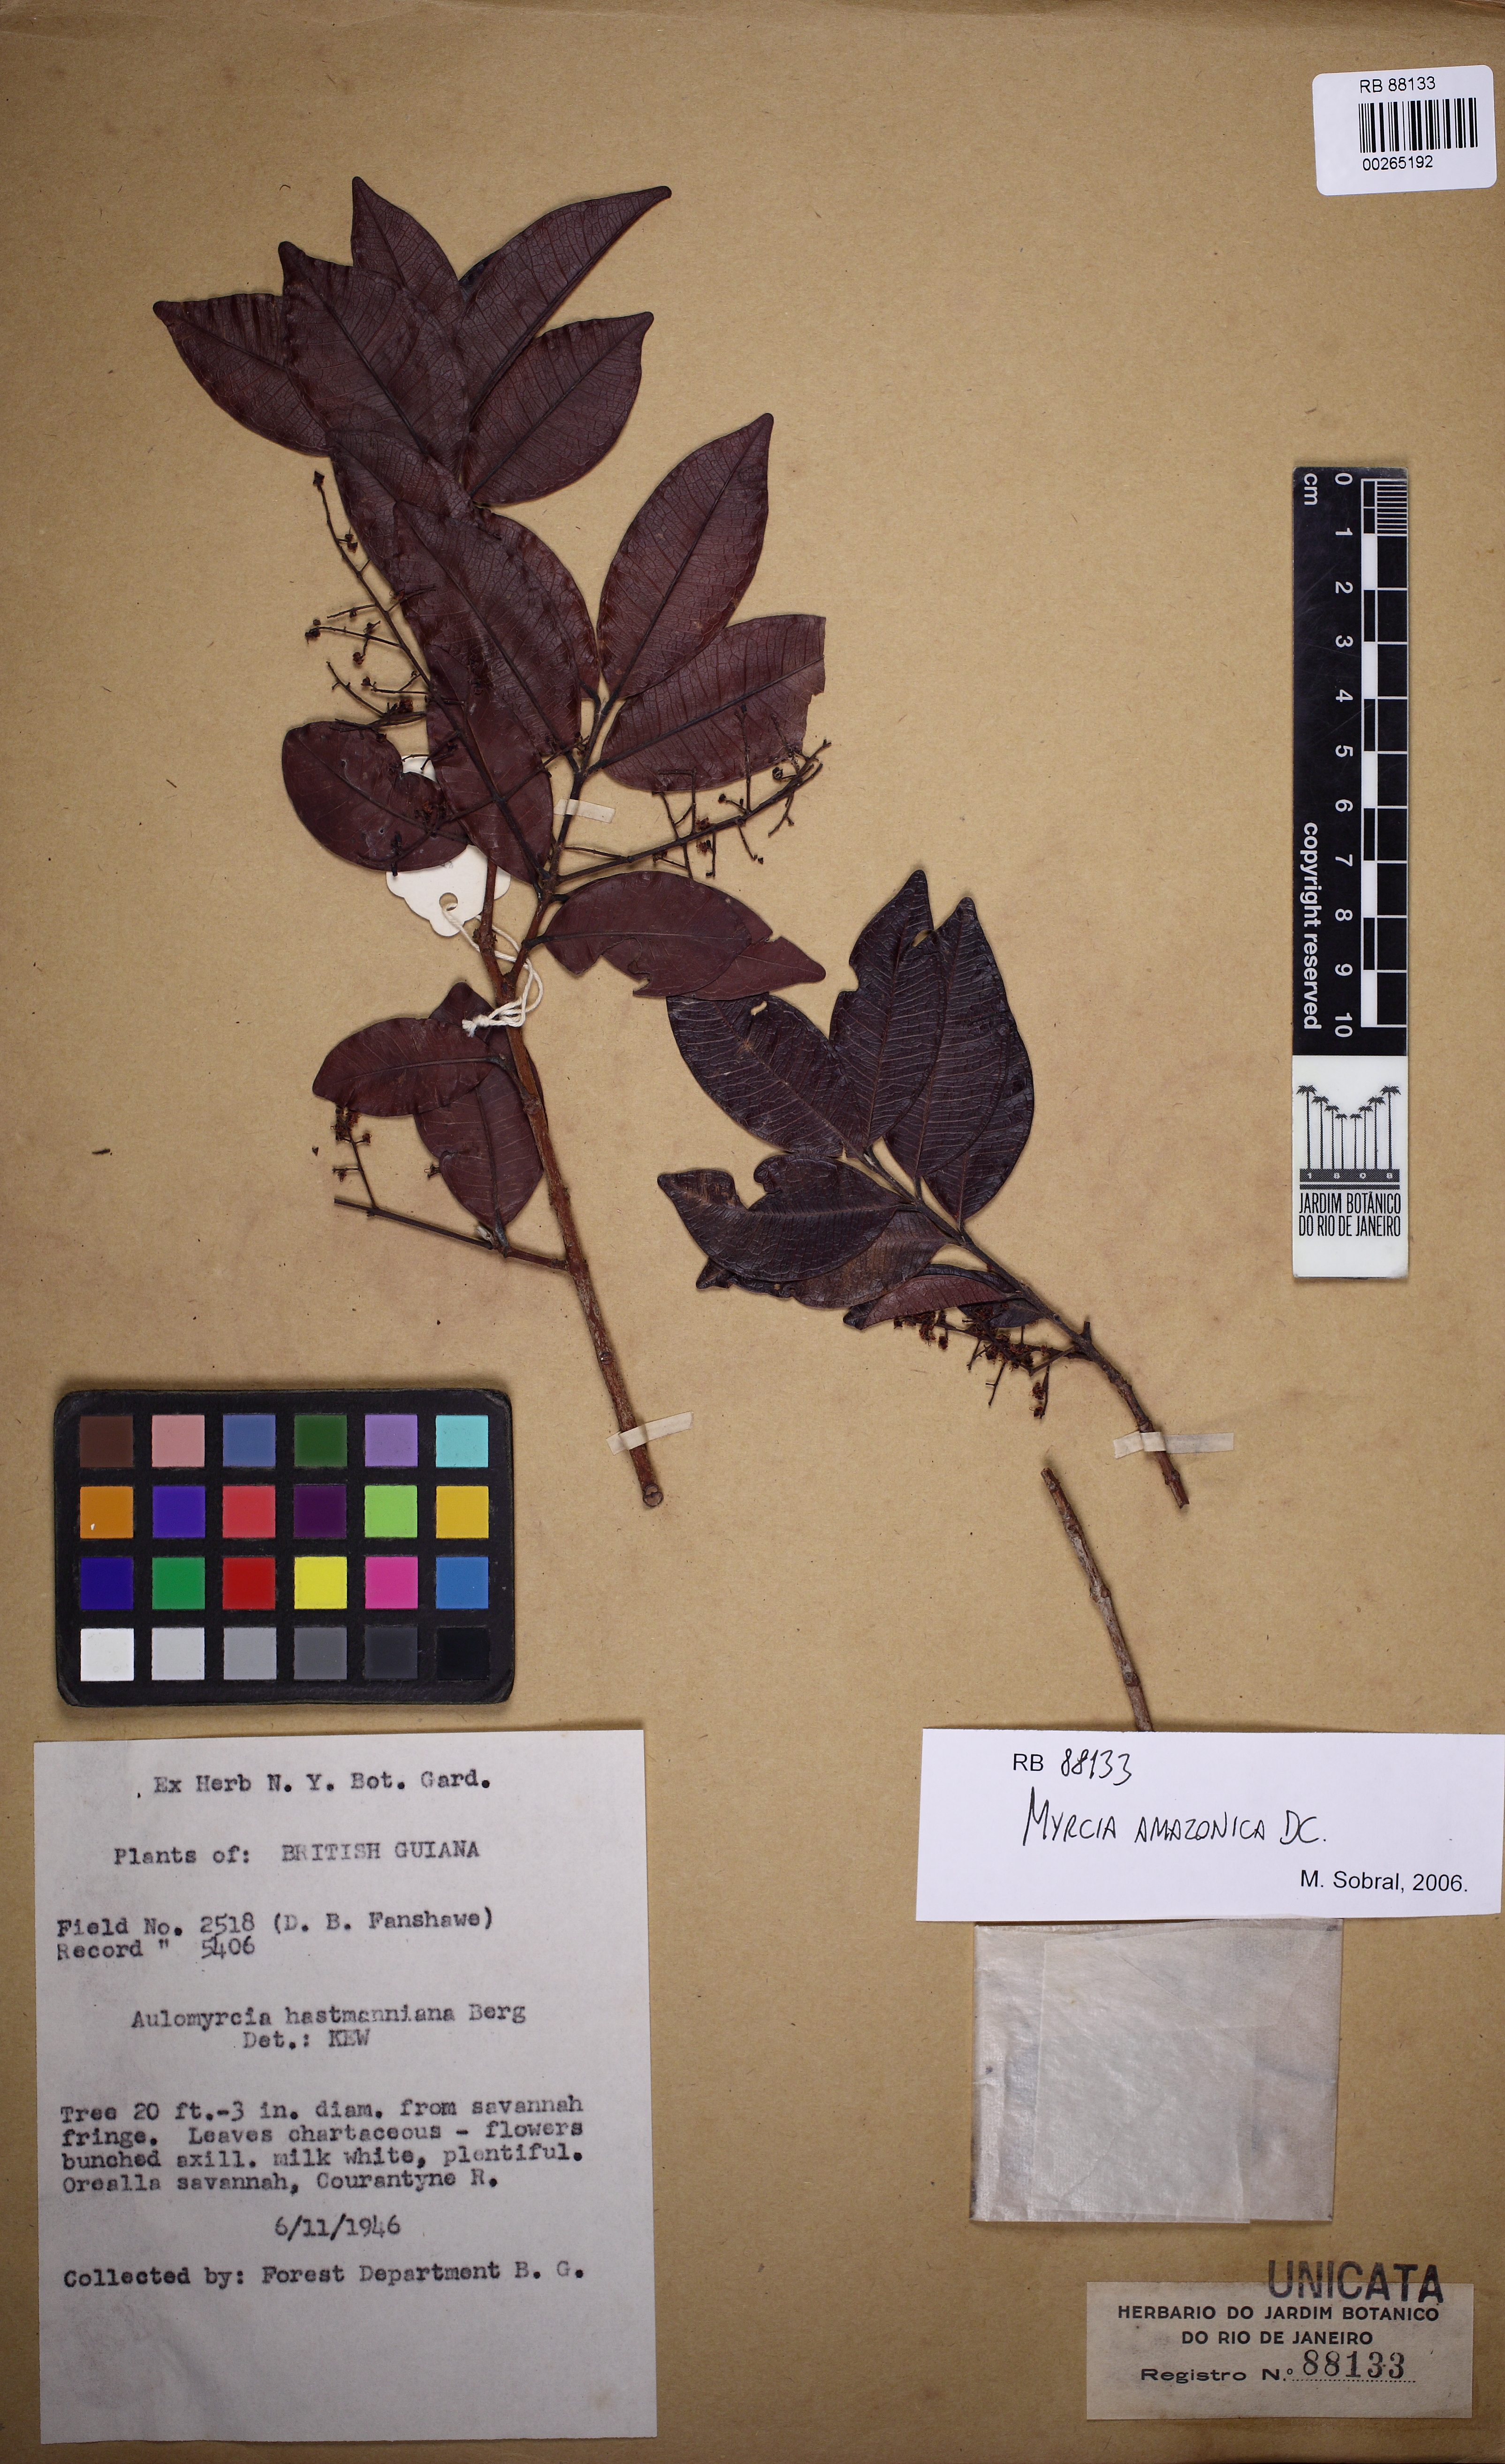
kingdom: Plantae
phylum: Tracheophyta
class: Magnoliopsida
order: Myrtales
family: Myrtaceae
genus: Myrcia
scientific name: Myrcia amazonica
